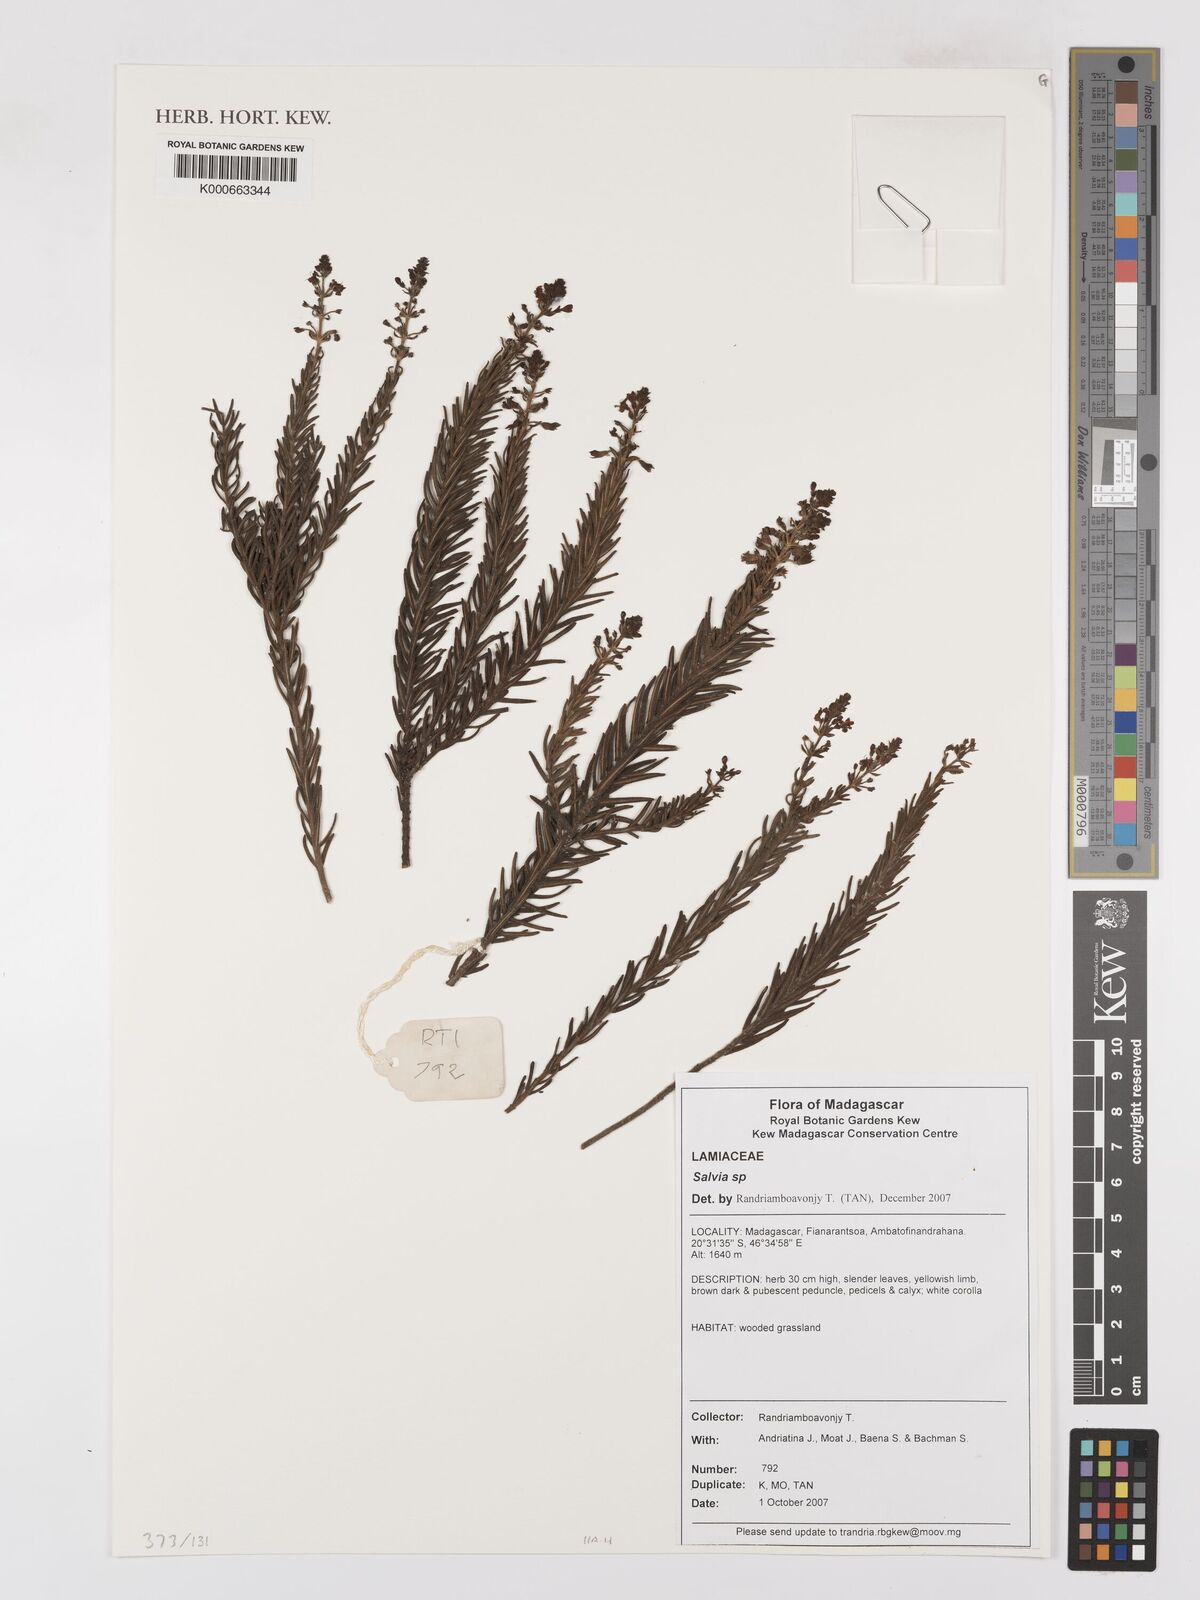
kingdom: Plantae
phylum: Tracheophyta
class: Magnoliopsida
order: Lamiales
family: Lamiaceae
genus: Salvia
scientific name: Salvia
